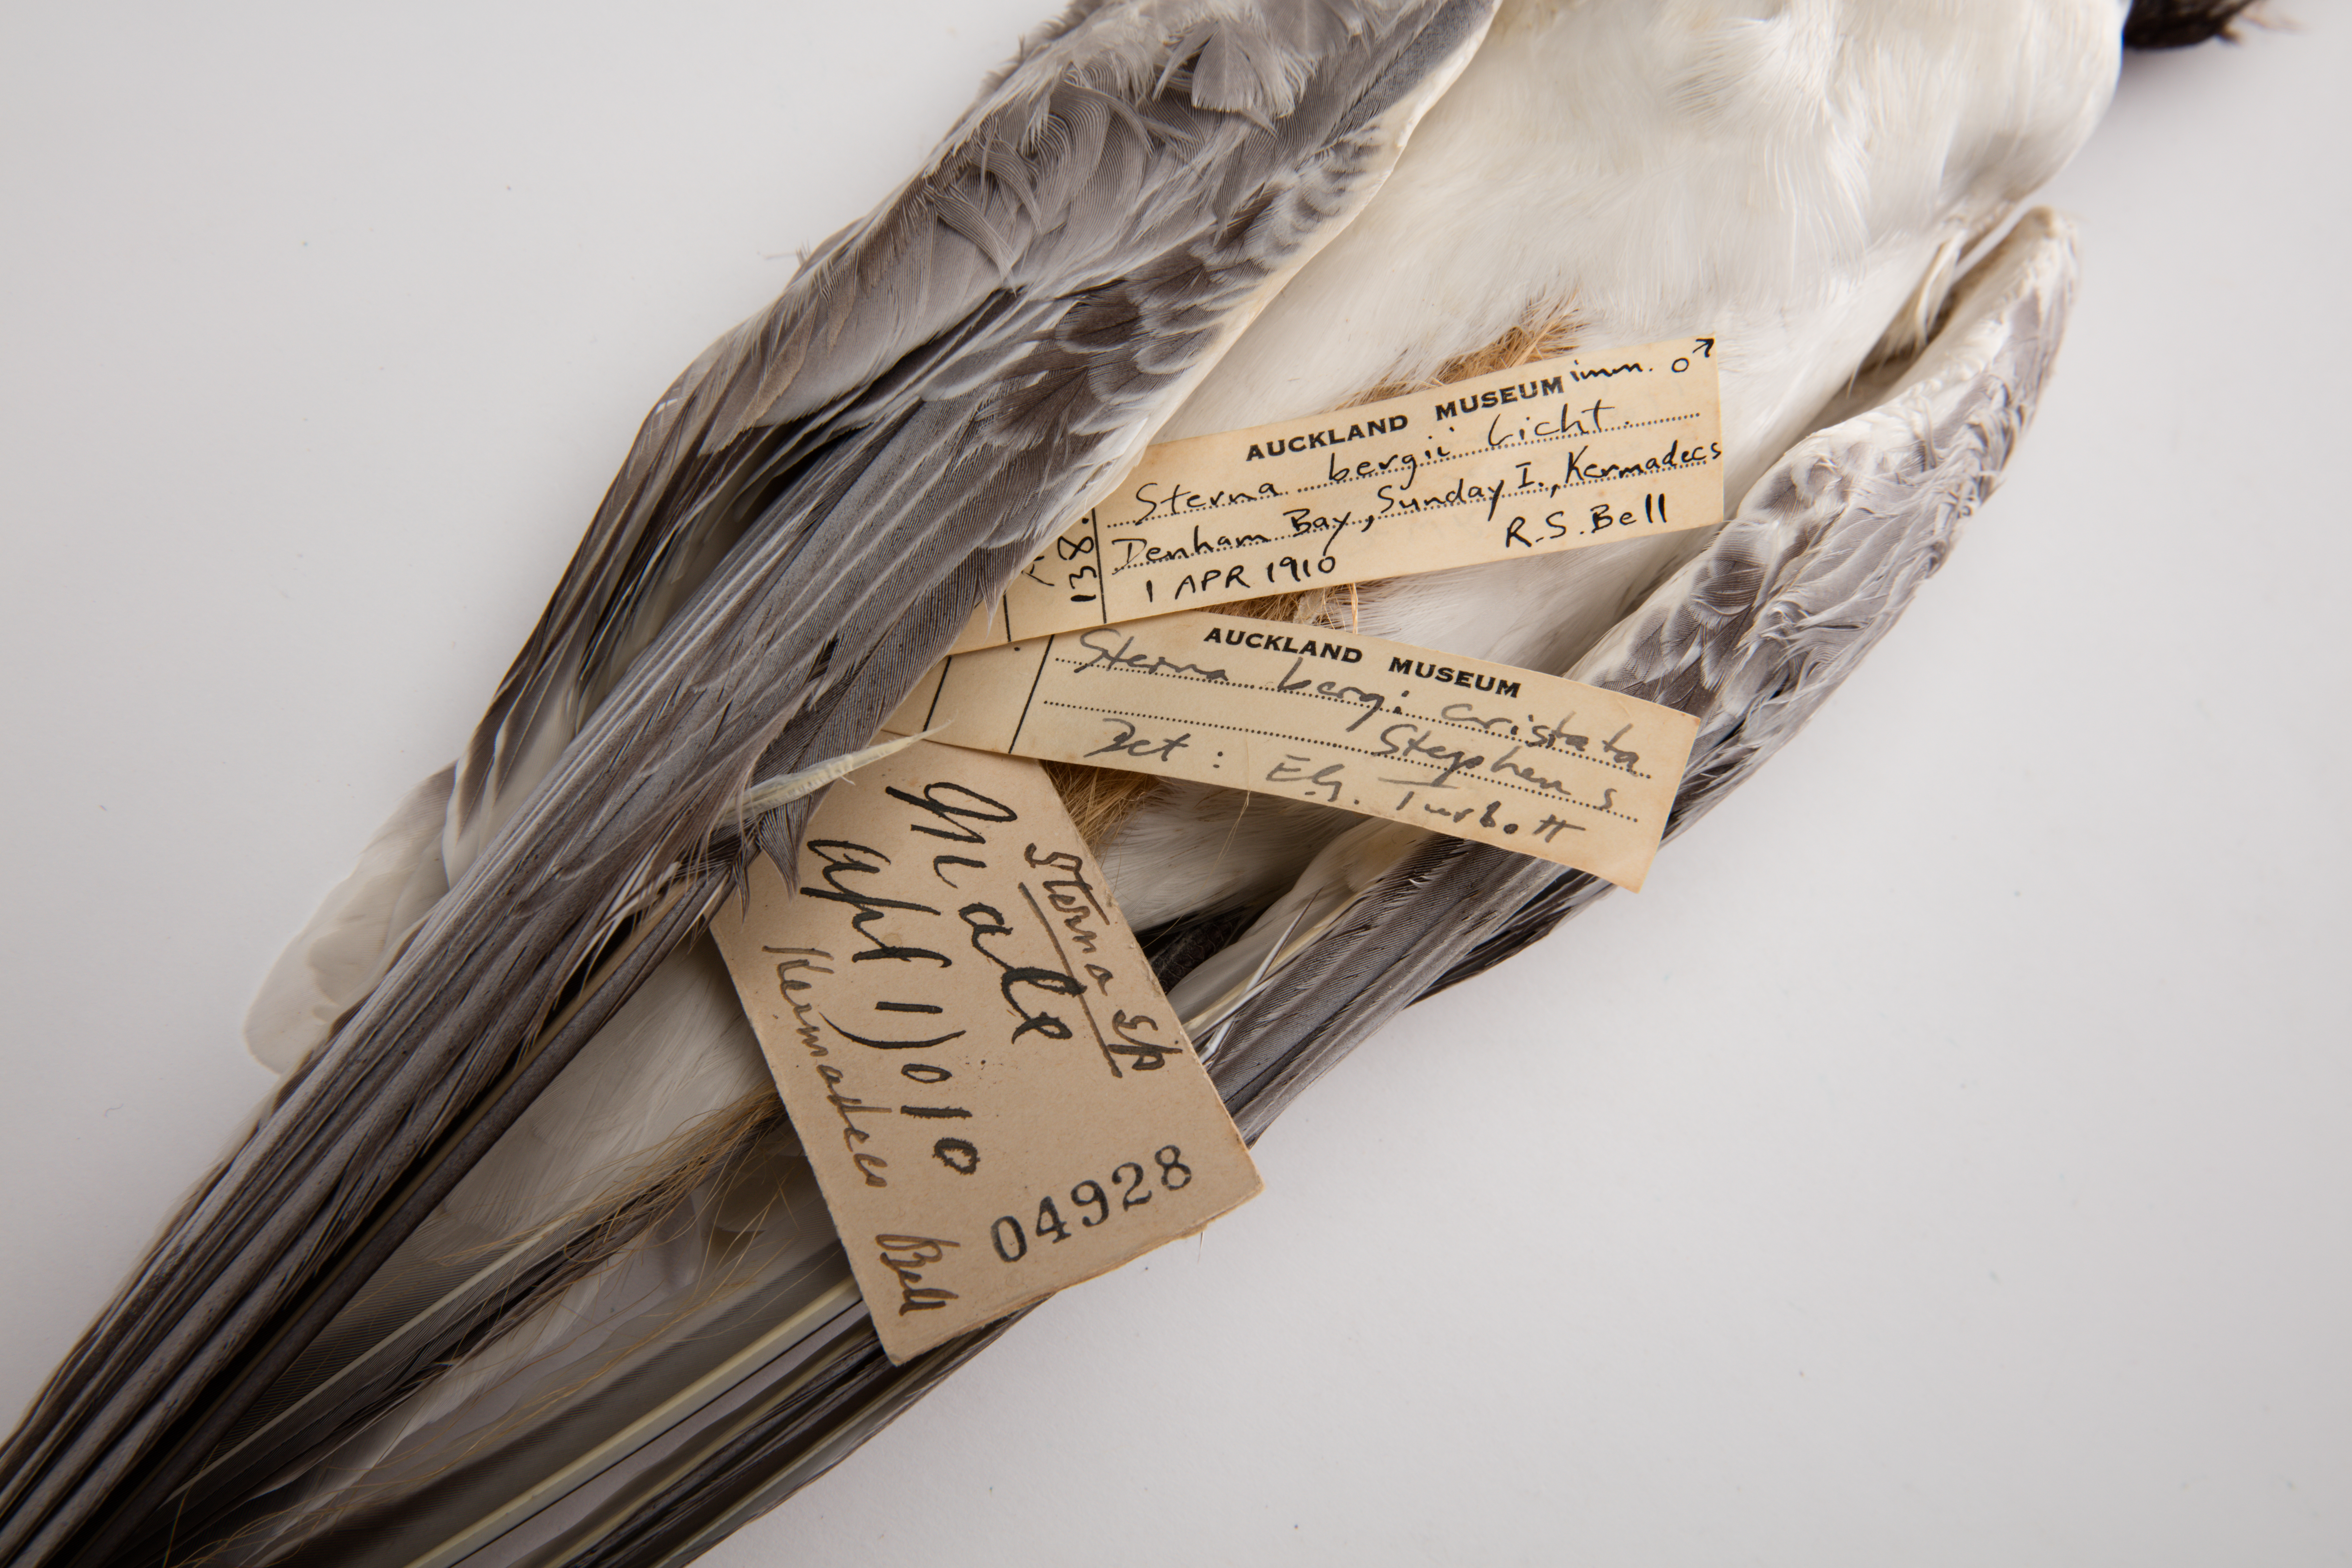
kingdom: Animalia
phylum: Chordata
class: Aves
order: Charadriiformes
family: Laridae
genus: Thalasseus
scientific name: Thalasseus bergii
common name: Greater crested tern
